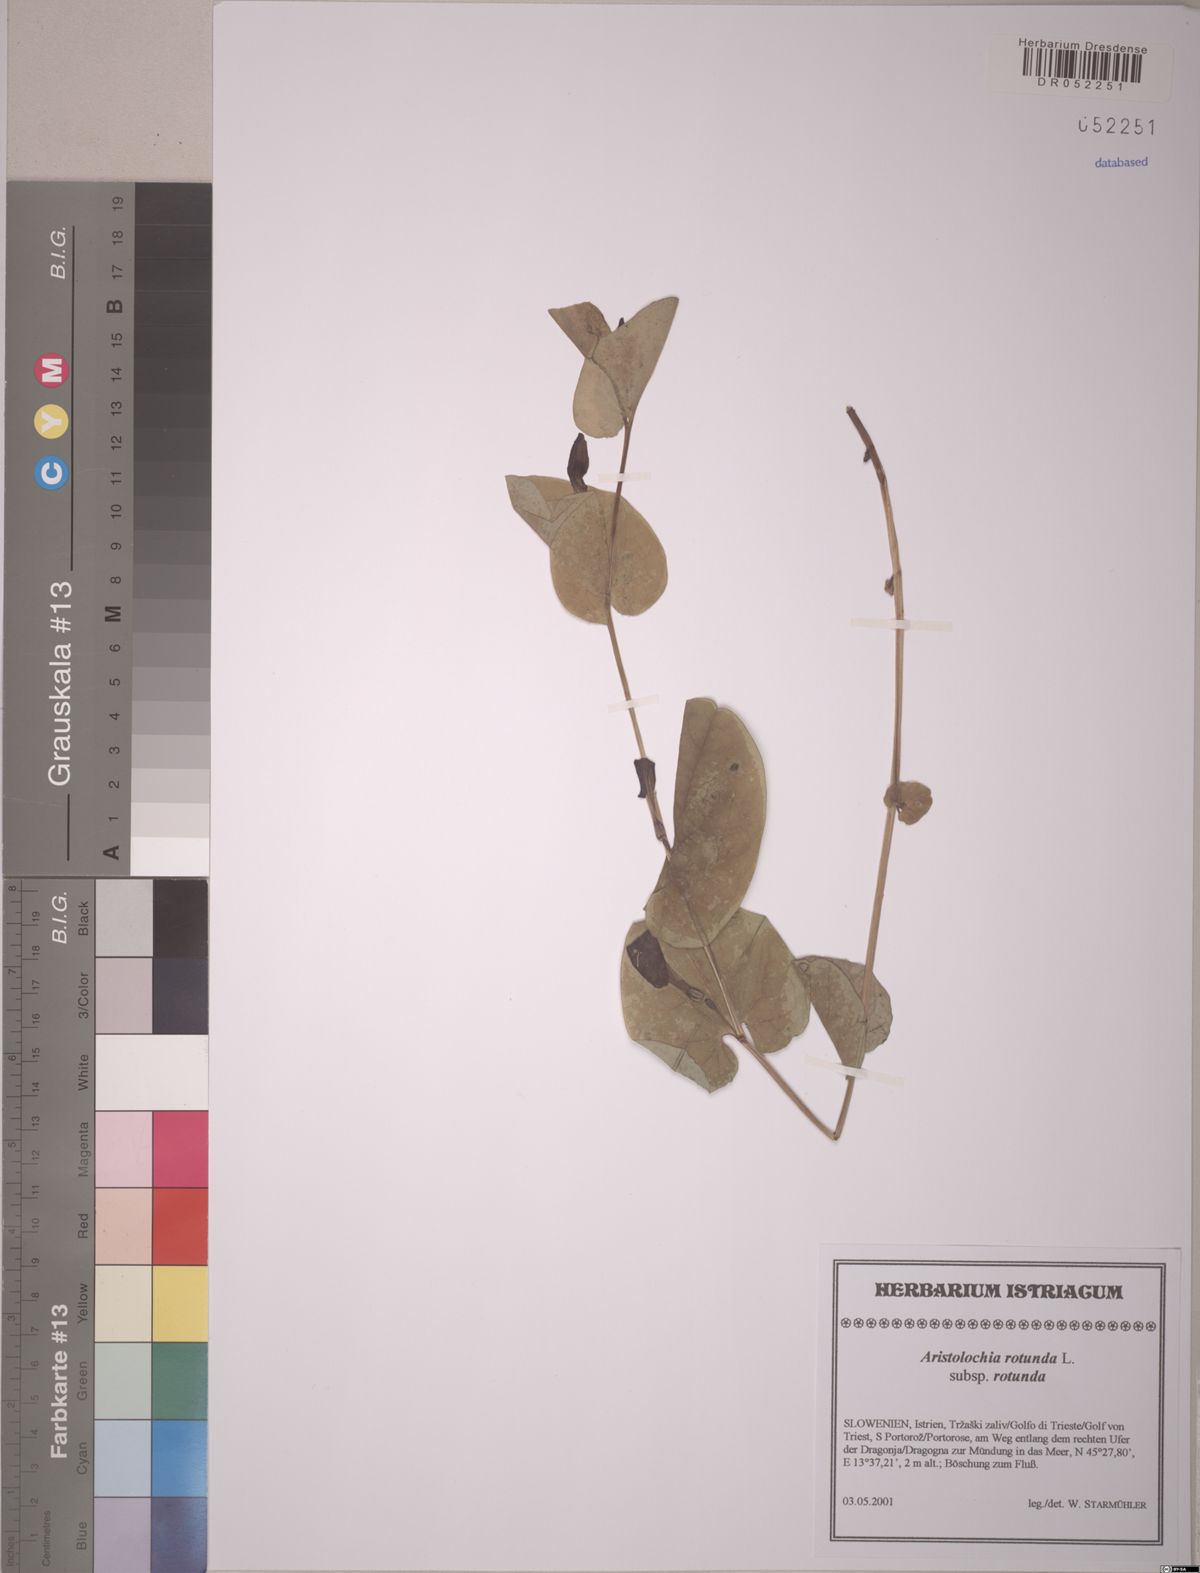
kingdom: Plantae
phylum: Tracheophyta
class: Magnoliopsida
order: Piperales
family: Aristolochiaceae
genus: Aristolochia
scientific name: Aristolochia rotunda
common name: Smearwort
